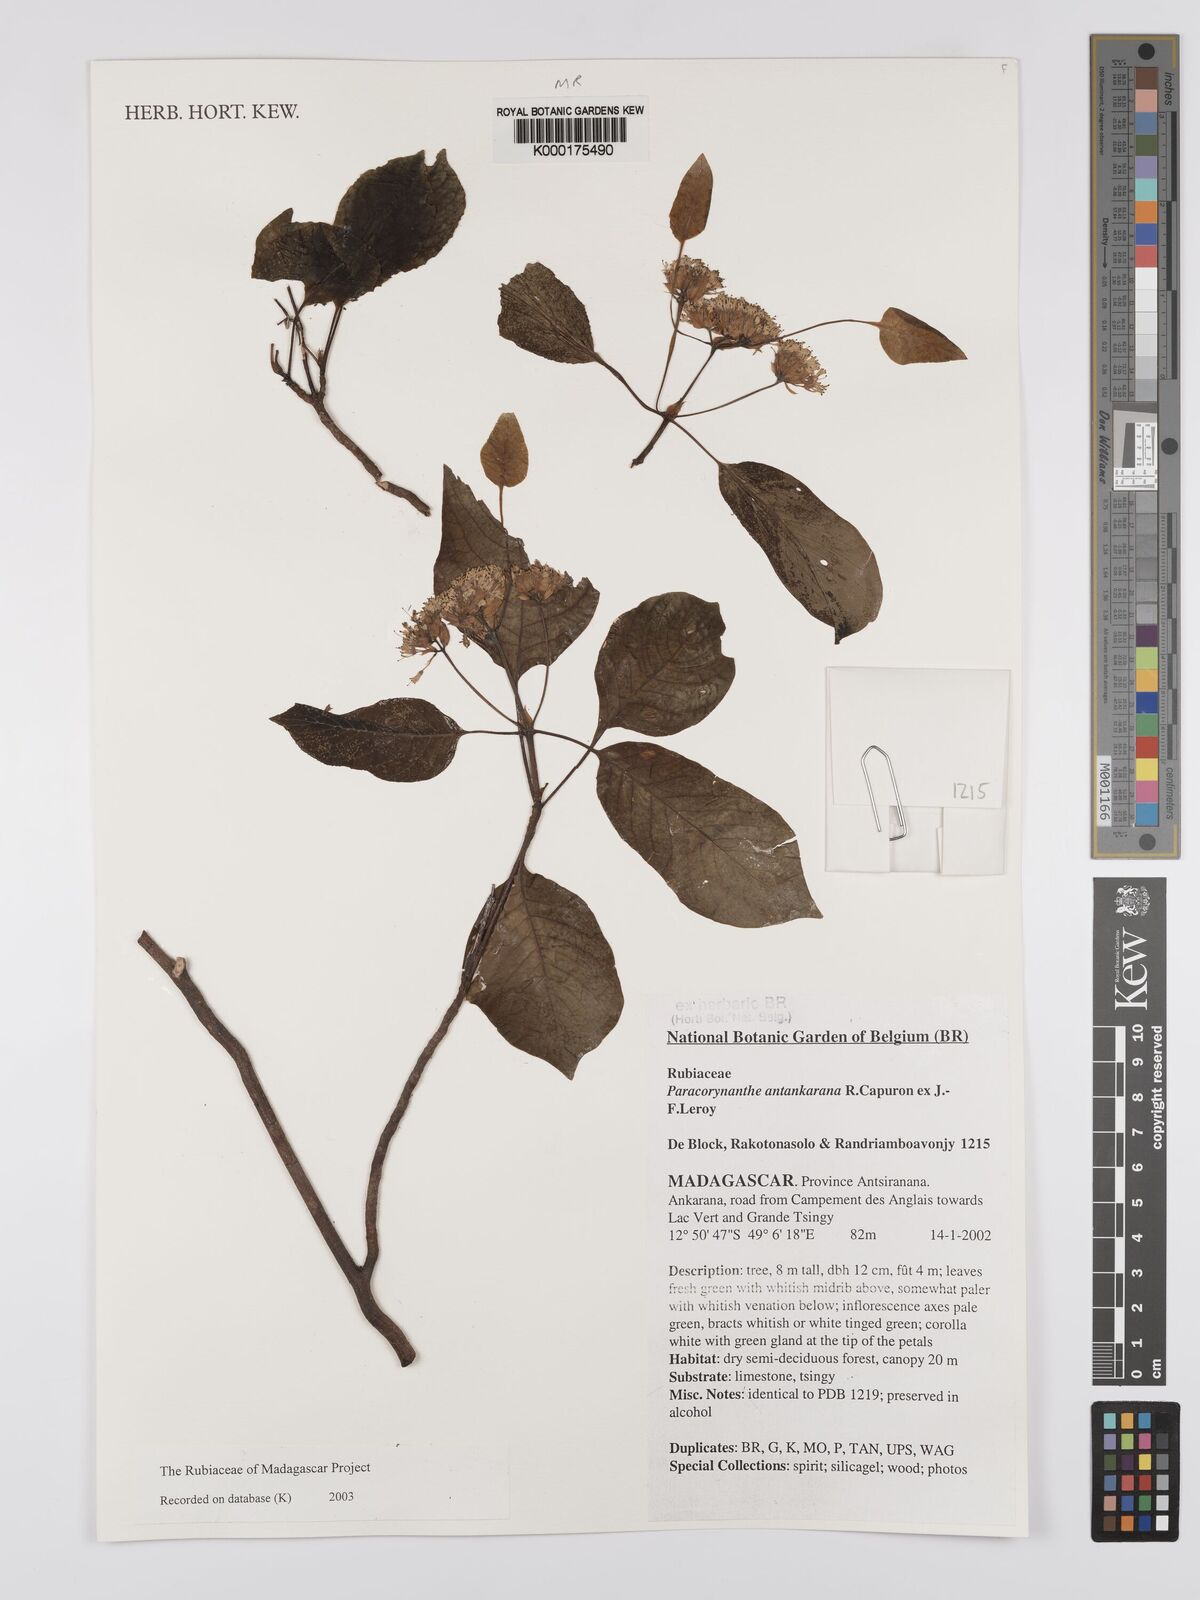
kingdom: Plantae
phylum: Tracheophyta
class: Magnoliopsida
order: Gentianales
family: Rubiaceae
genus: Paracorynanthe
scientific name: Paracorynanthe antankarana
